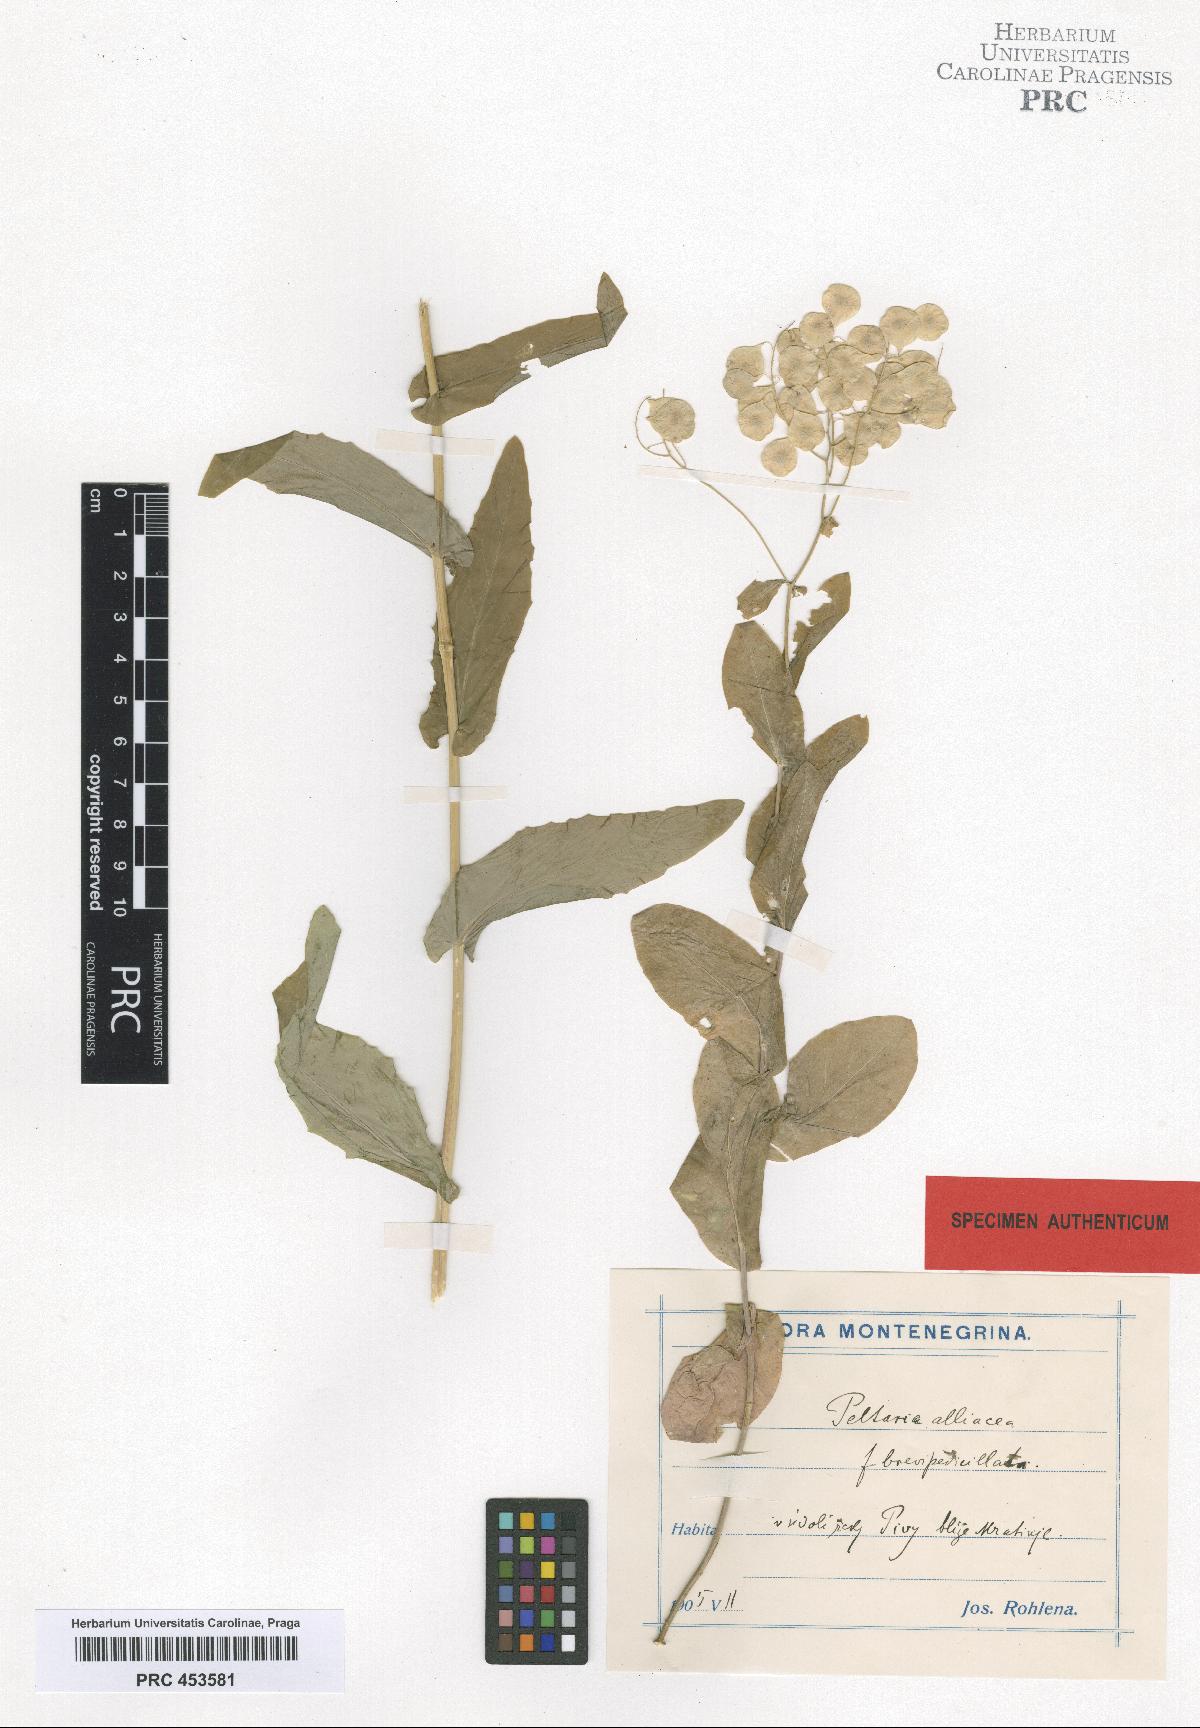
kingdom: Plantae
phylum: Tracheophyta
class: Magnoliopsida
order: Brassicales
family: Brassicaceae
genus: Peltaria
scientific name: Peltaria alliacea
